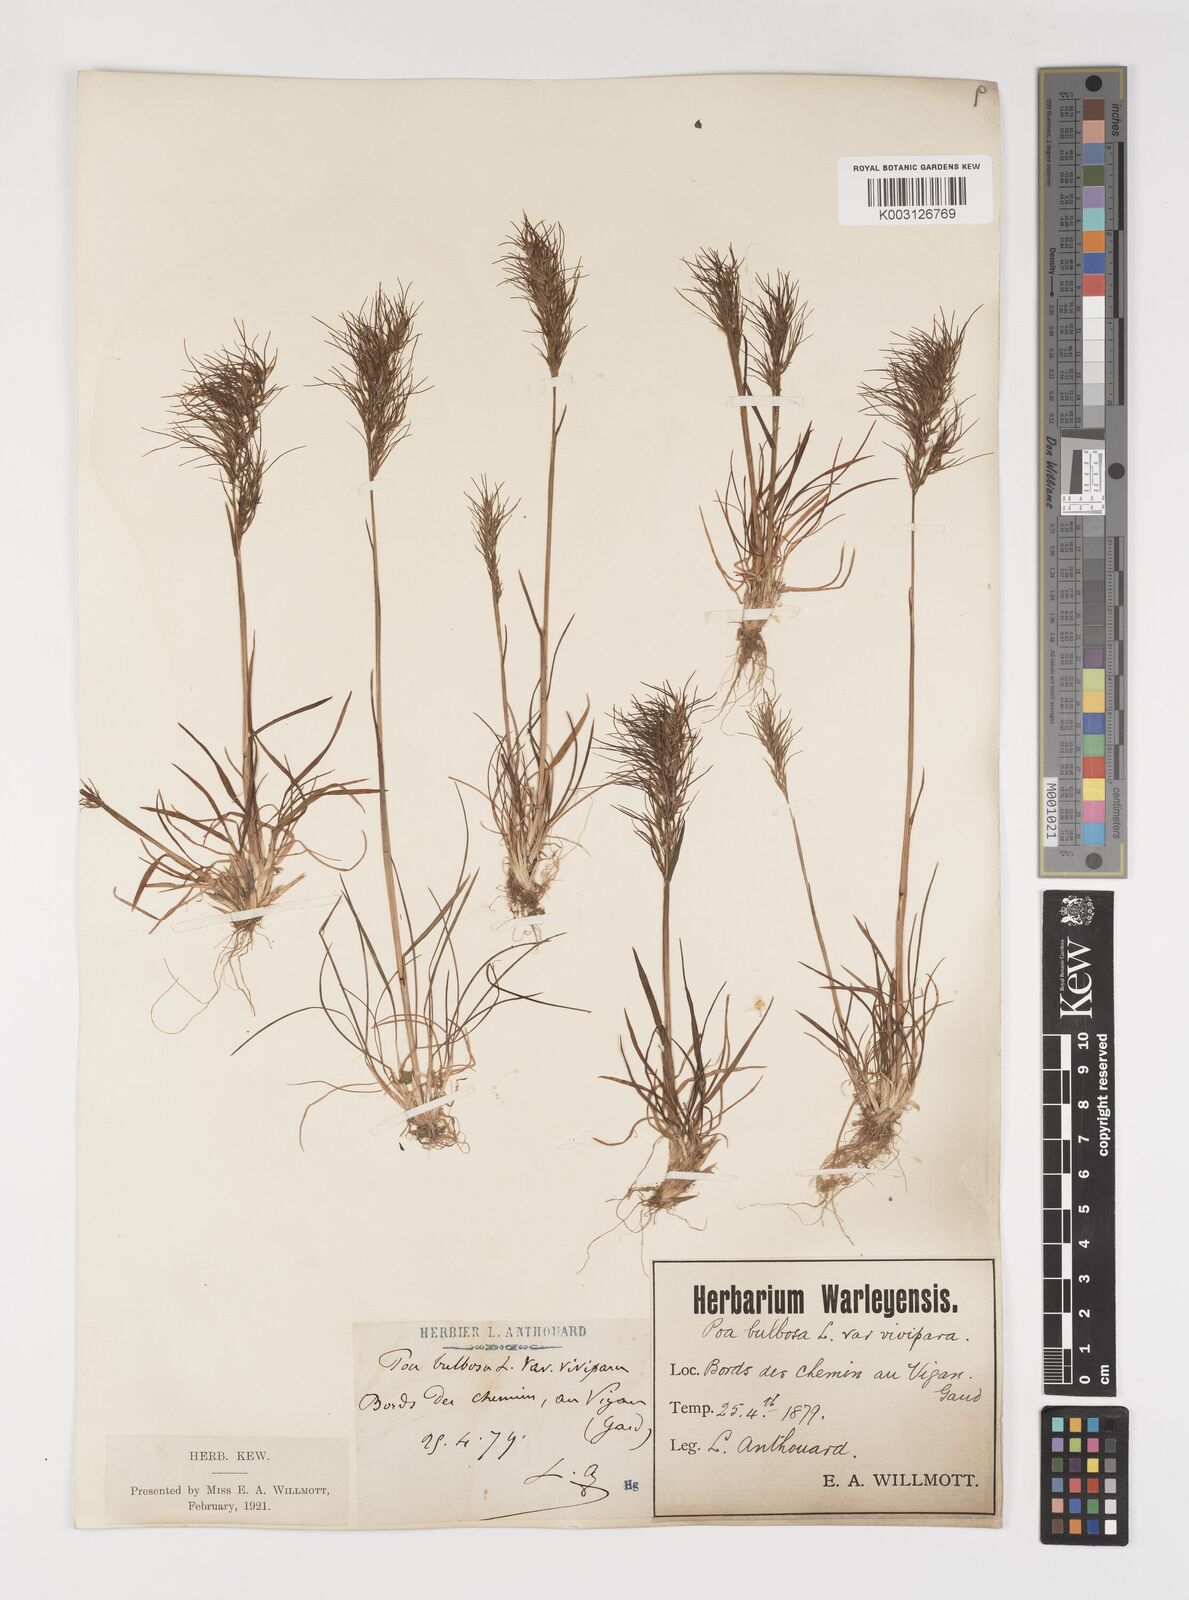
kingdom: Plantae
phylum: Tracheophyta
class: Liliopsida
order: Poales
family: Poaceae
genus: Poa
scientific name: Poa bulbosa
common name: Bulbous bluegrass
